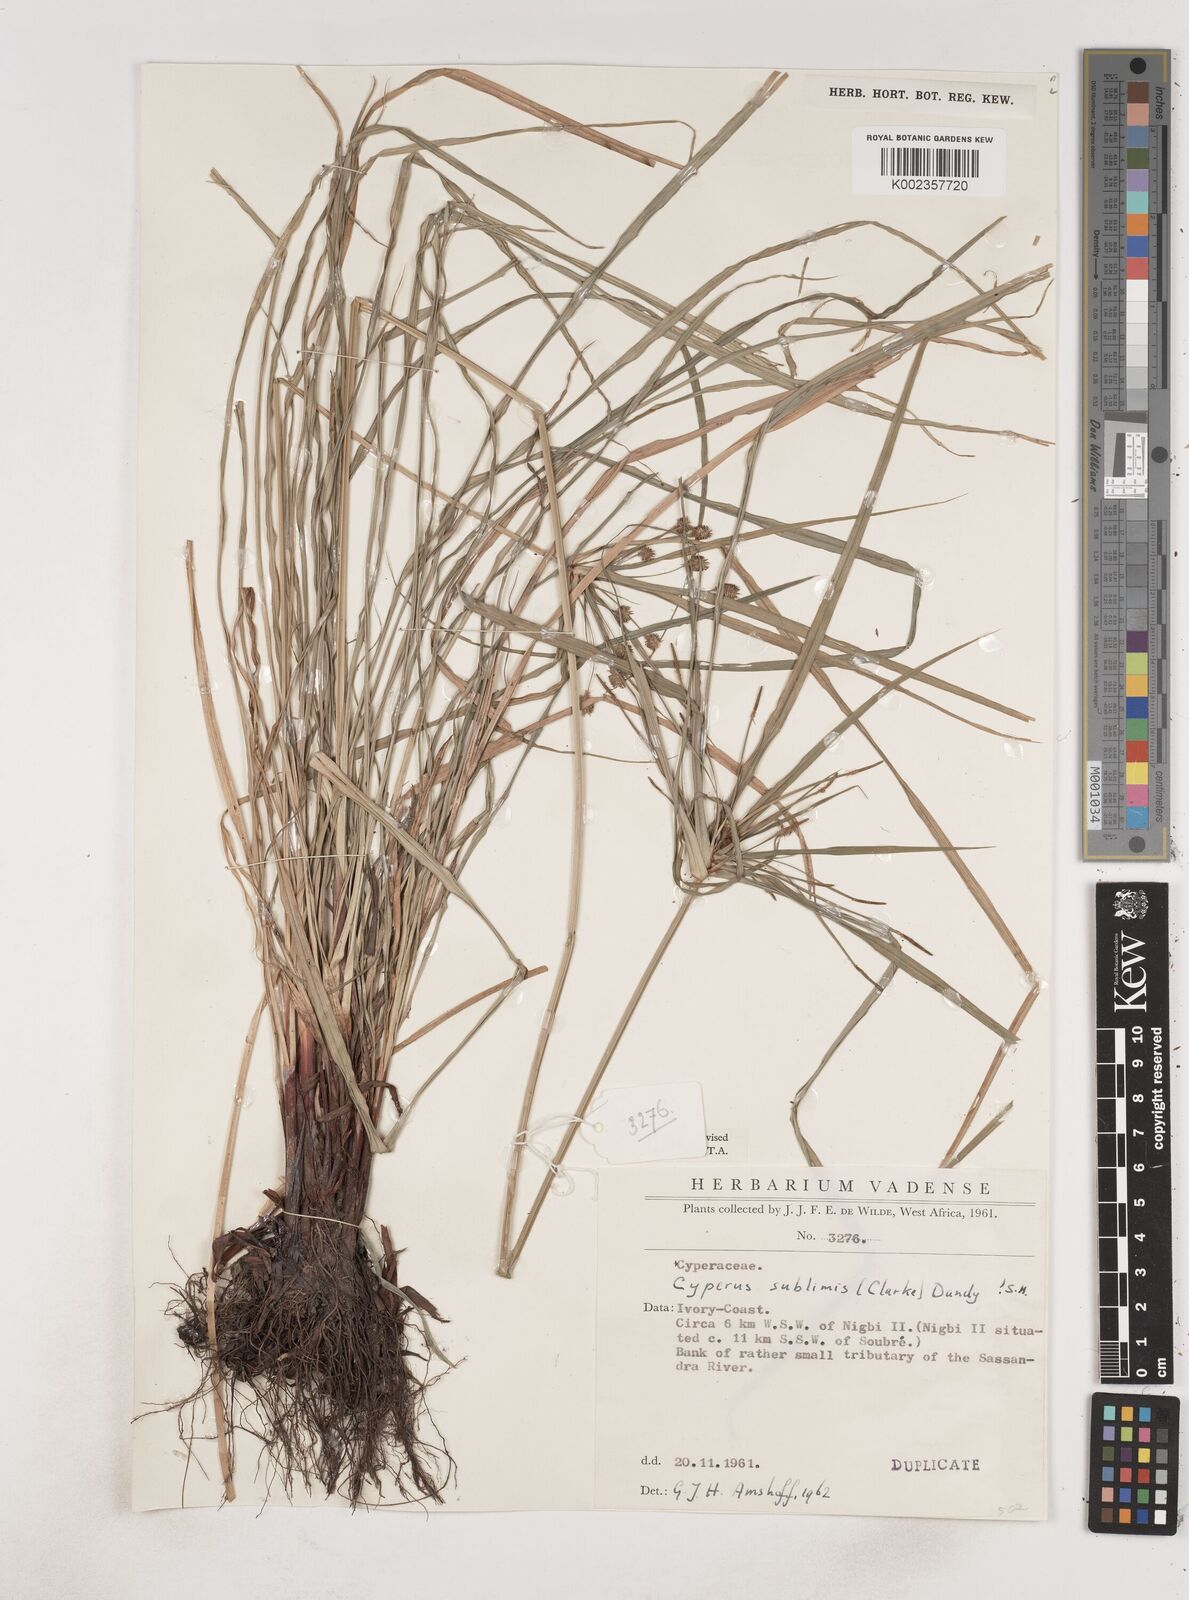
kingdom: Plantae
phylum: Tracheophyta
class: Liliopsida
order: Poales
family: Cyperaceae
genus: Cyperus
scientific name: Cyperus sublimis
